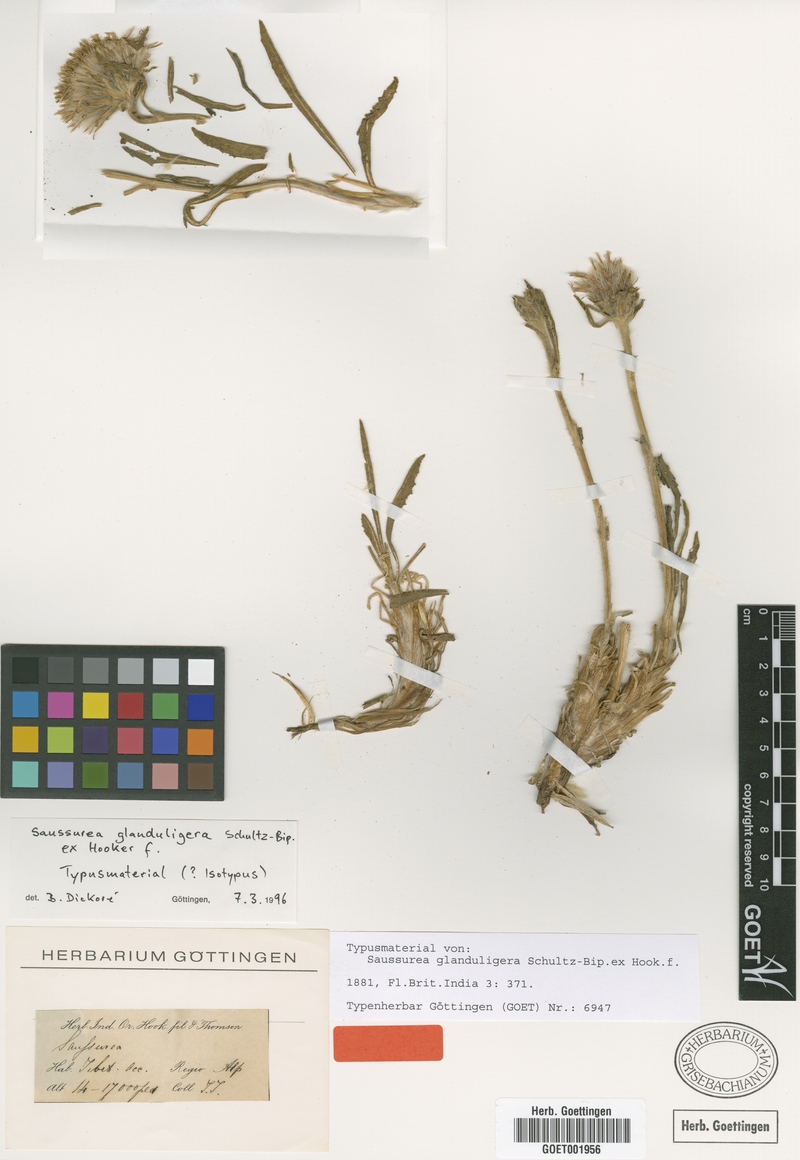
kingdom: Plantae
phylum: Tracheophyta
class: Magnoliopsida
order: Asterales
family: Asteraceae
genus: Saussurea
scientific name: Saussurea schlagintweitii
